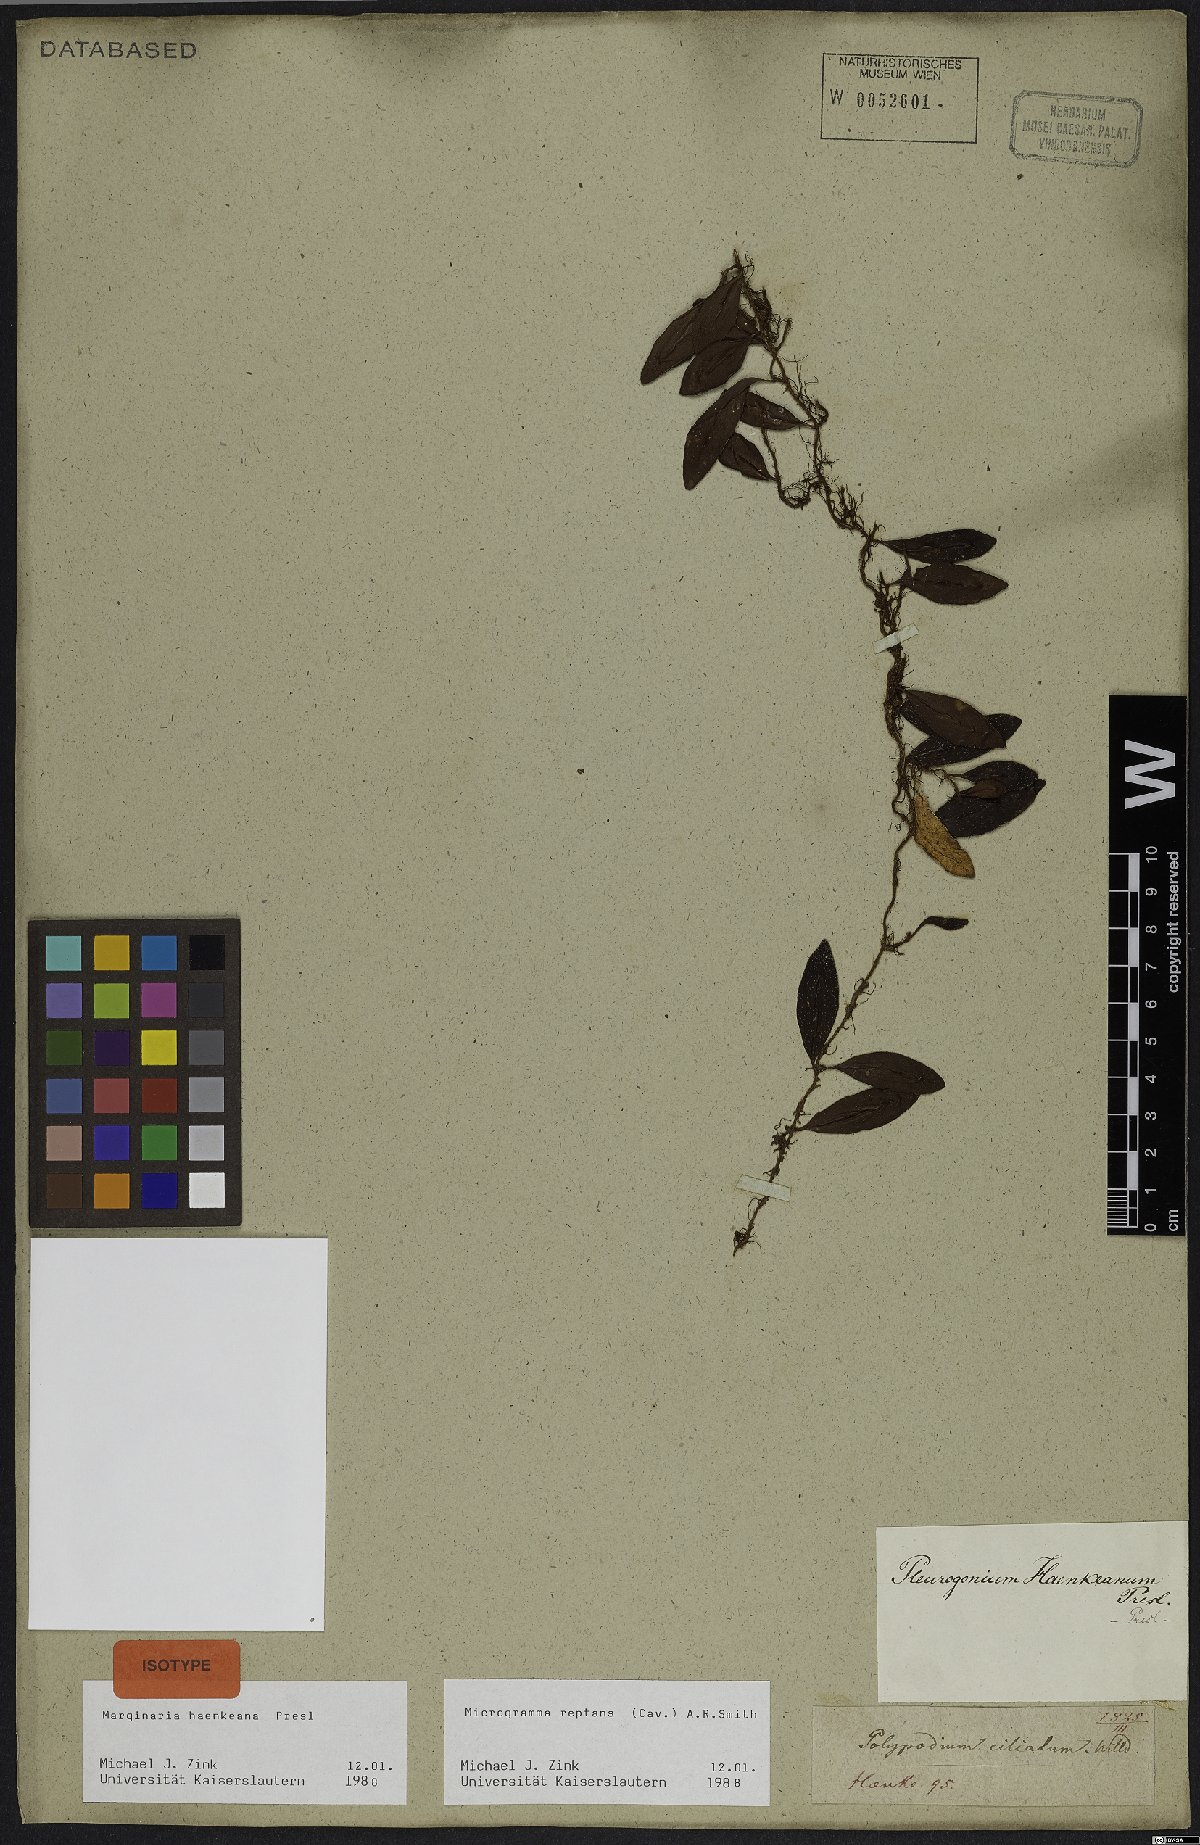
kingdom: Plantae
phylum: Tracheophyta
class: Polypodiopsida
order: Polypodiales
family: Polypodiaceae
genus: Microgramma
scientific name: Microgramma reptans
